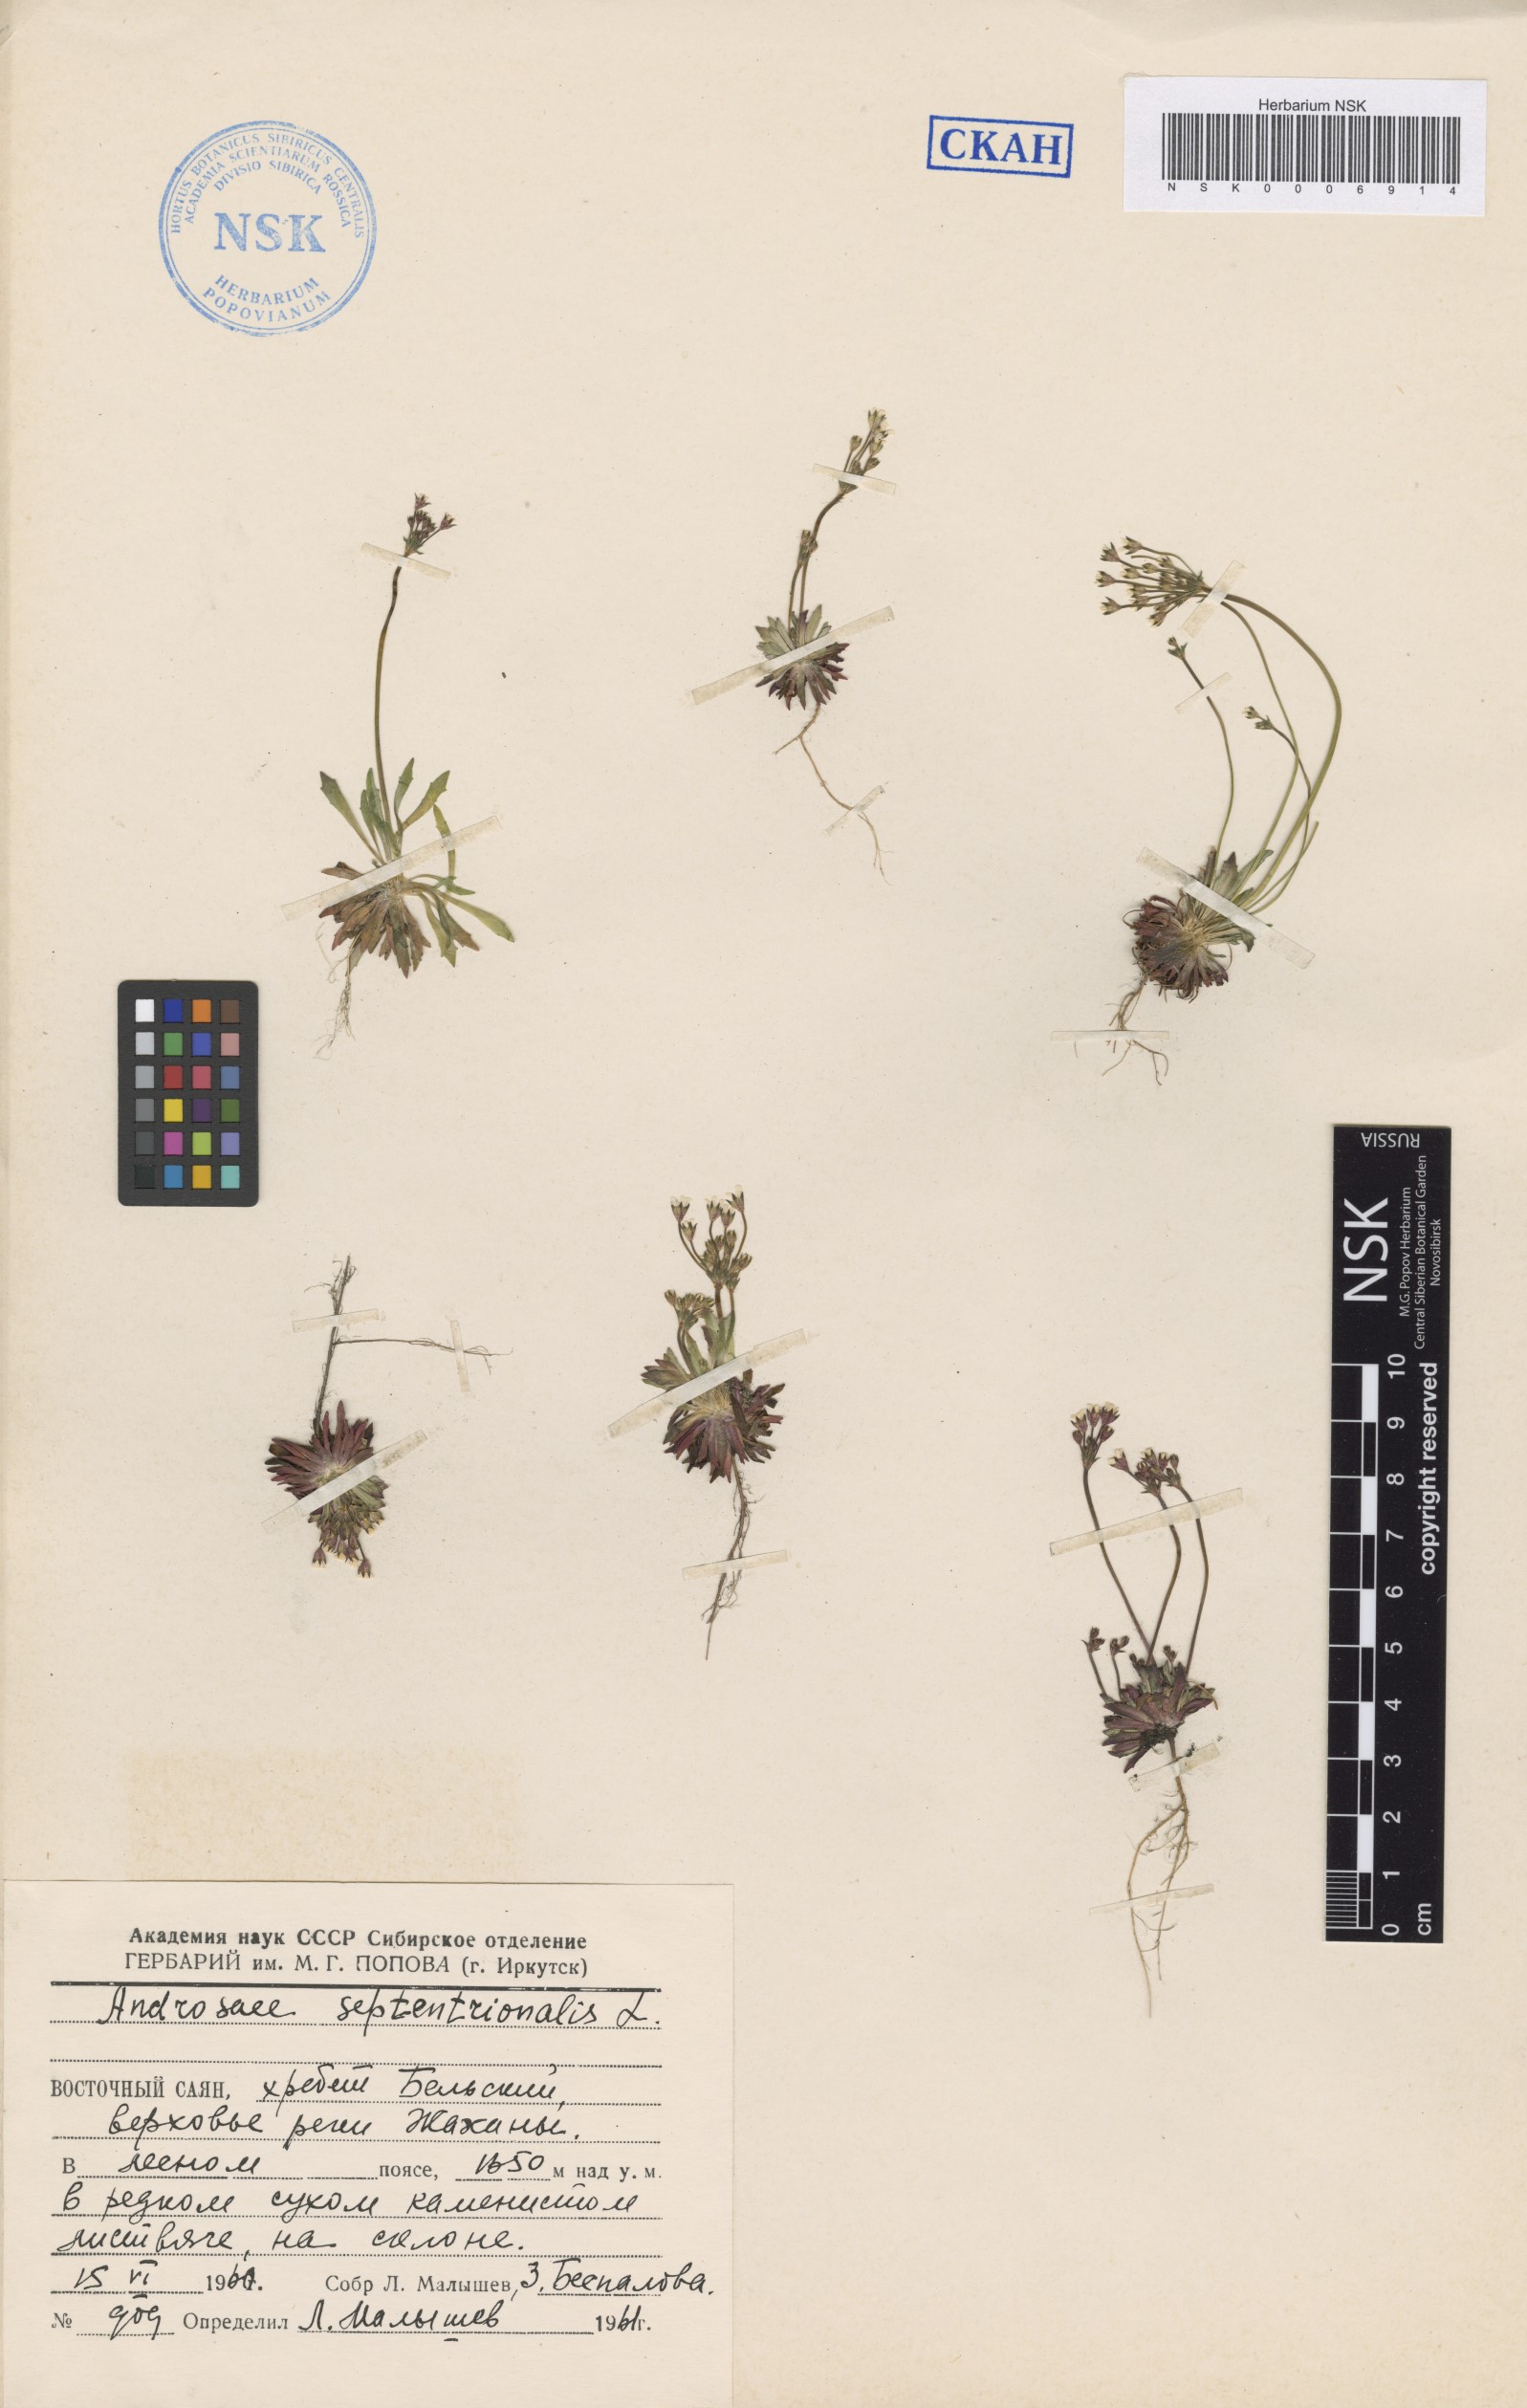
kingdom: Plantae
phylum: Tracheophyta
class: Magnoliopsida
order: Ericales
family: Primulaceae
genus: Androsace
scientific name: Androsace septentrionalis
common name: Hairy northern fairy-candelabra
